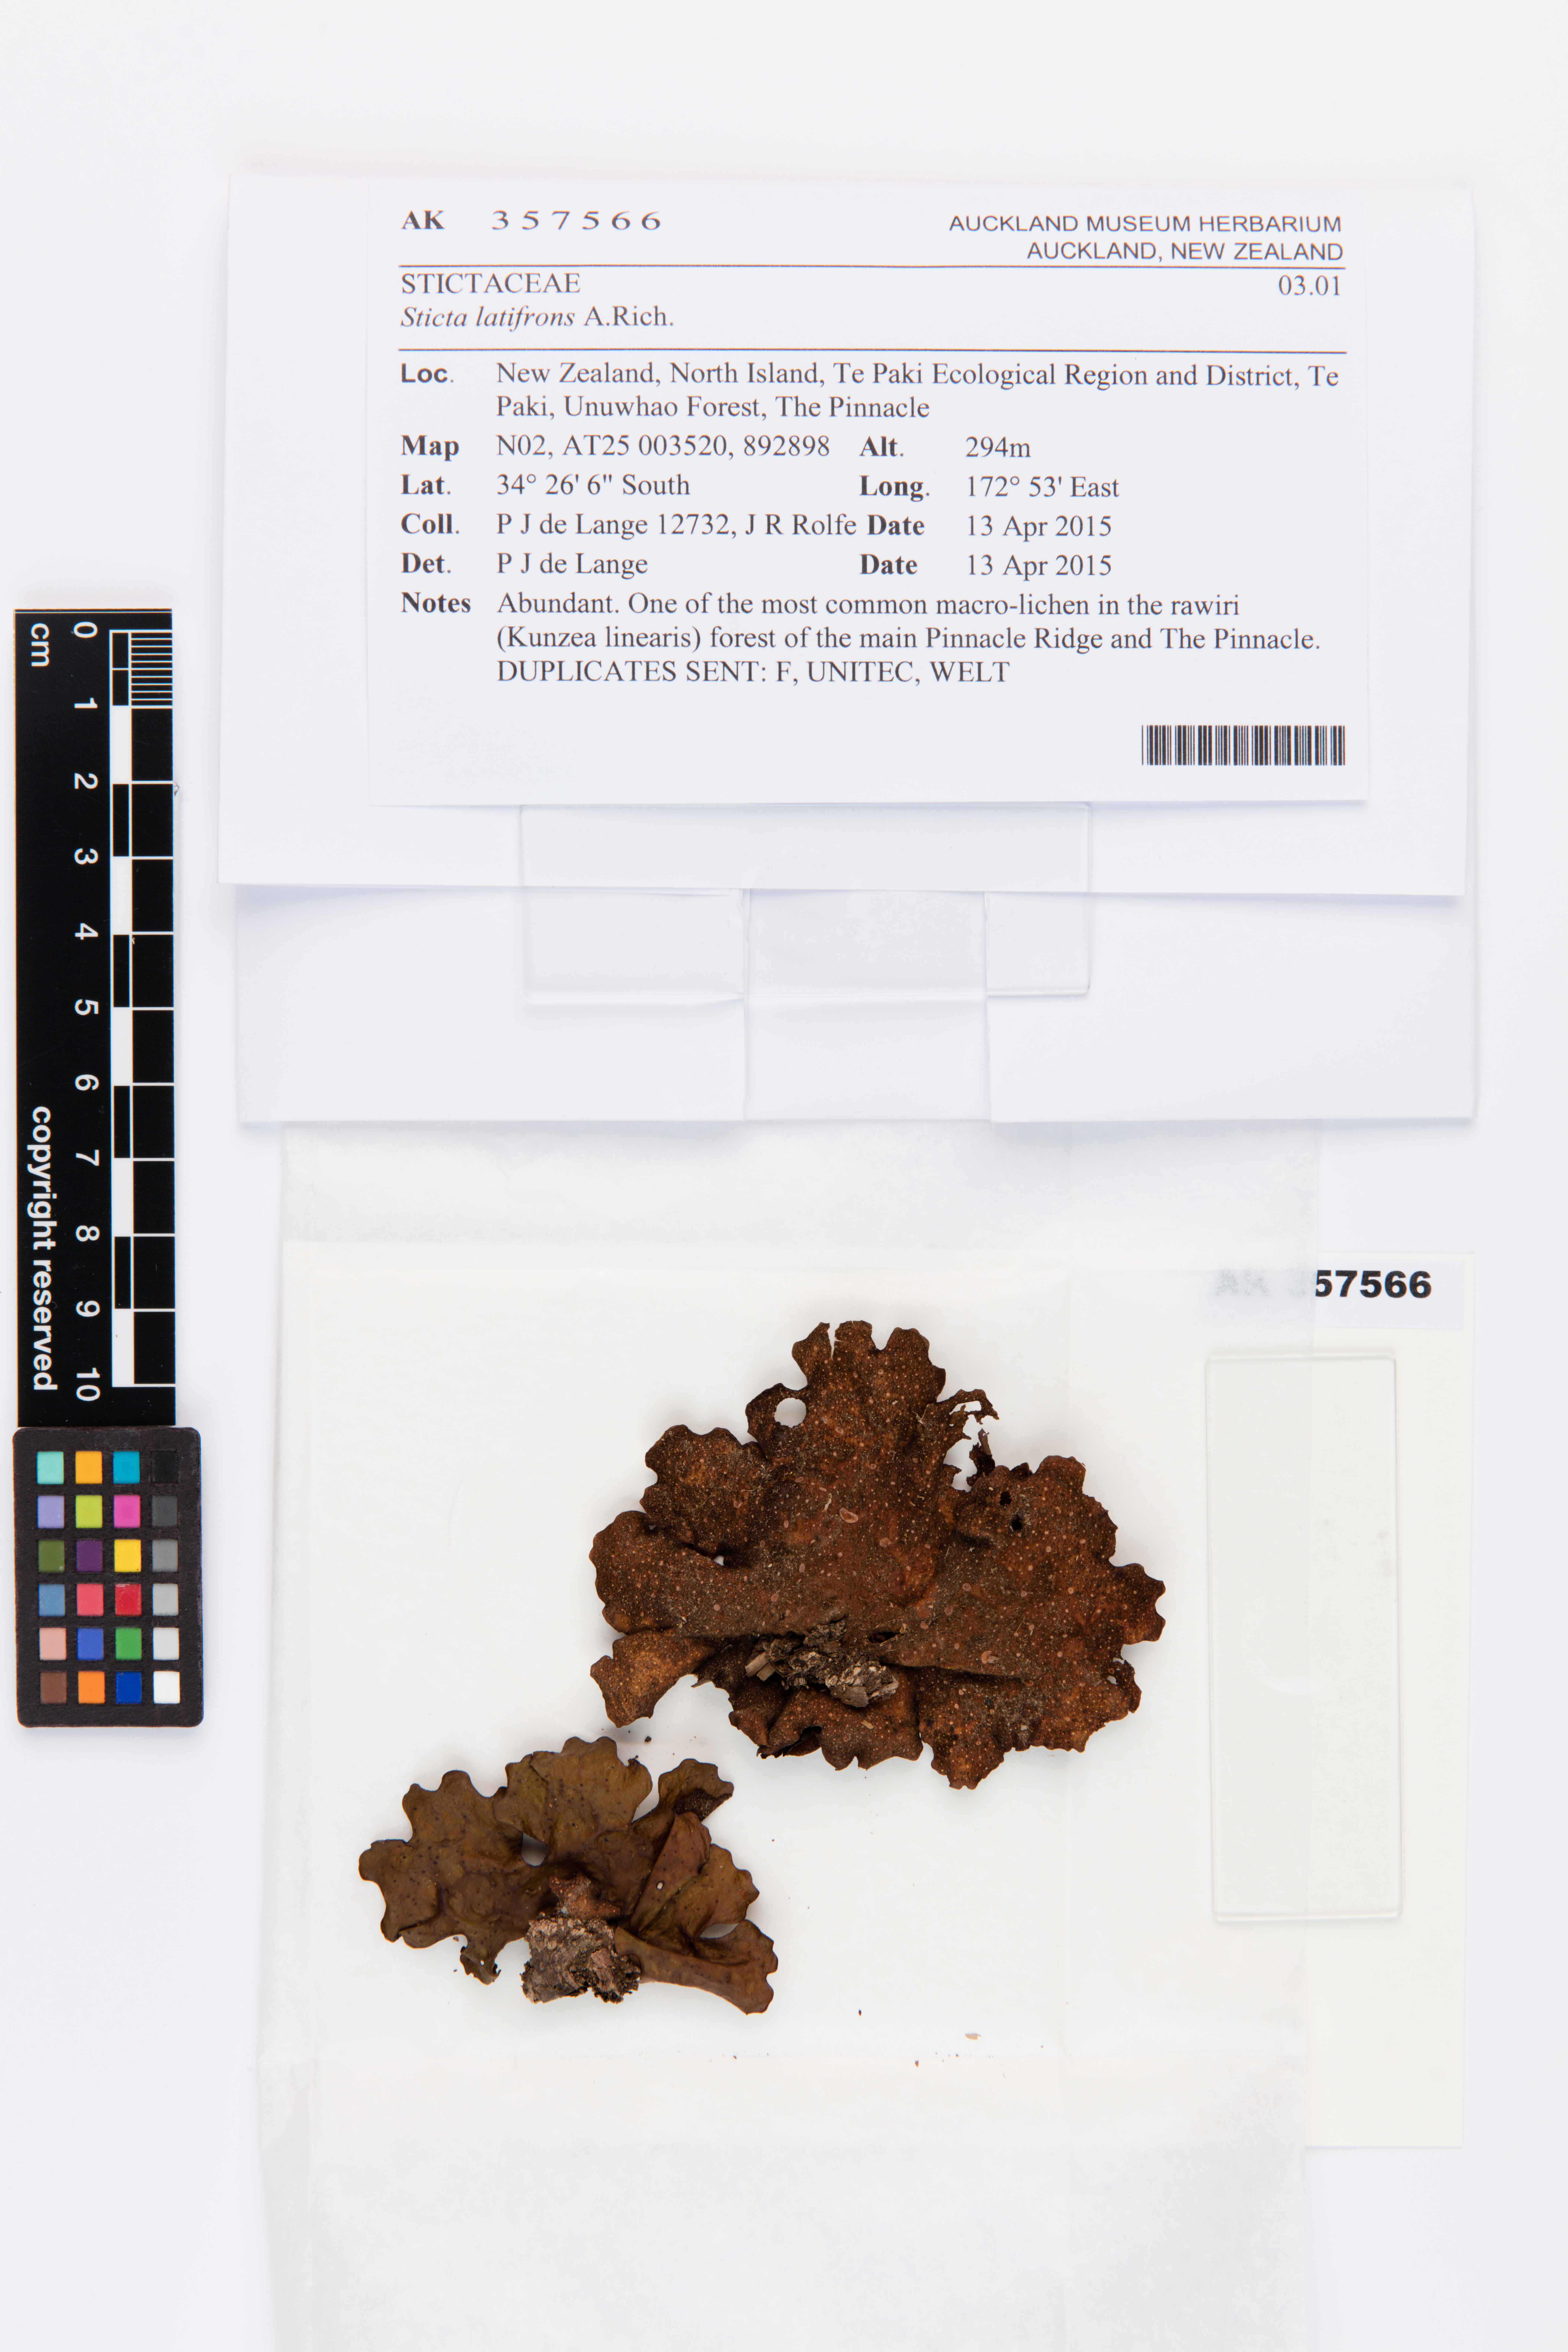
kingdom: Fungi
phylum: Ascomycota
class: Lecanoromycetes
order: Peltigerales
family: Lobariaceae
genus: Sticta
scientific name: Sticta latifrons
